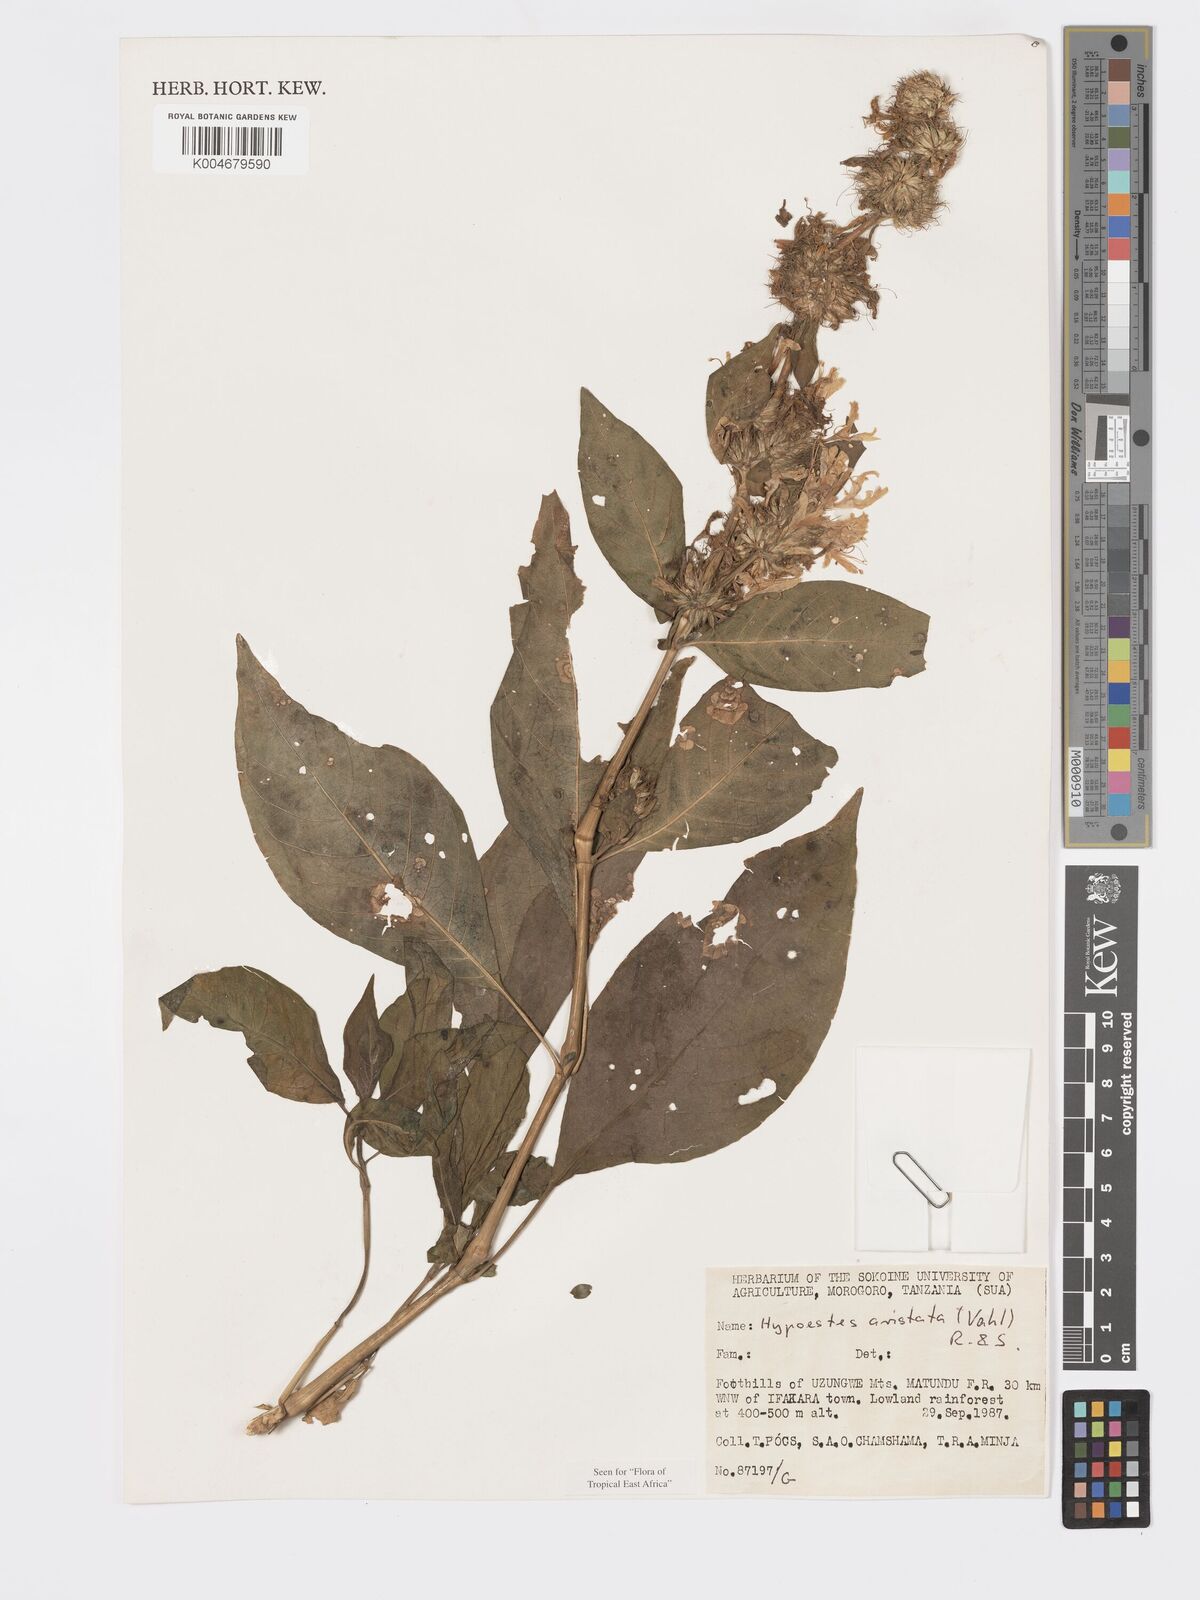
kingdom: Plantae
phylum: Tracheophyta
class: Magnoliopsida
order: Lamiales
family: Acanthaceae
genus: Hypoestes
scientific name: Hypoestes aristata
